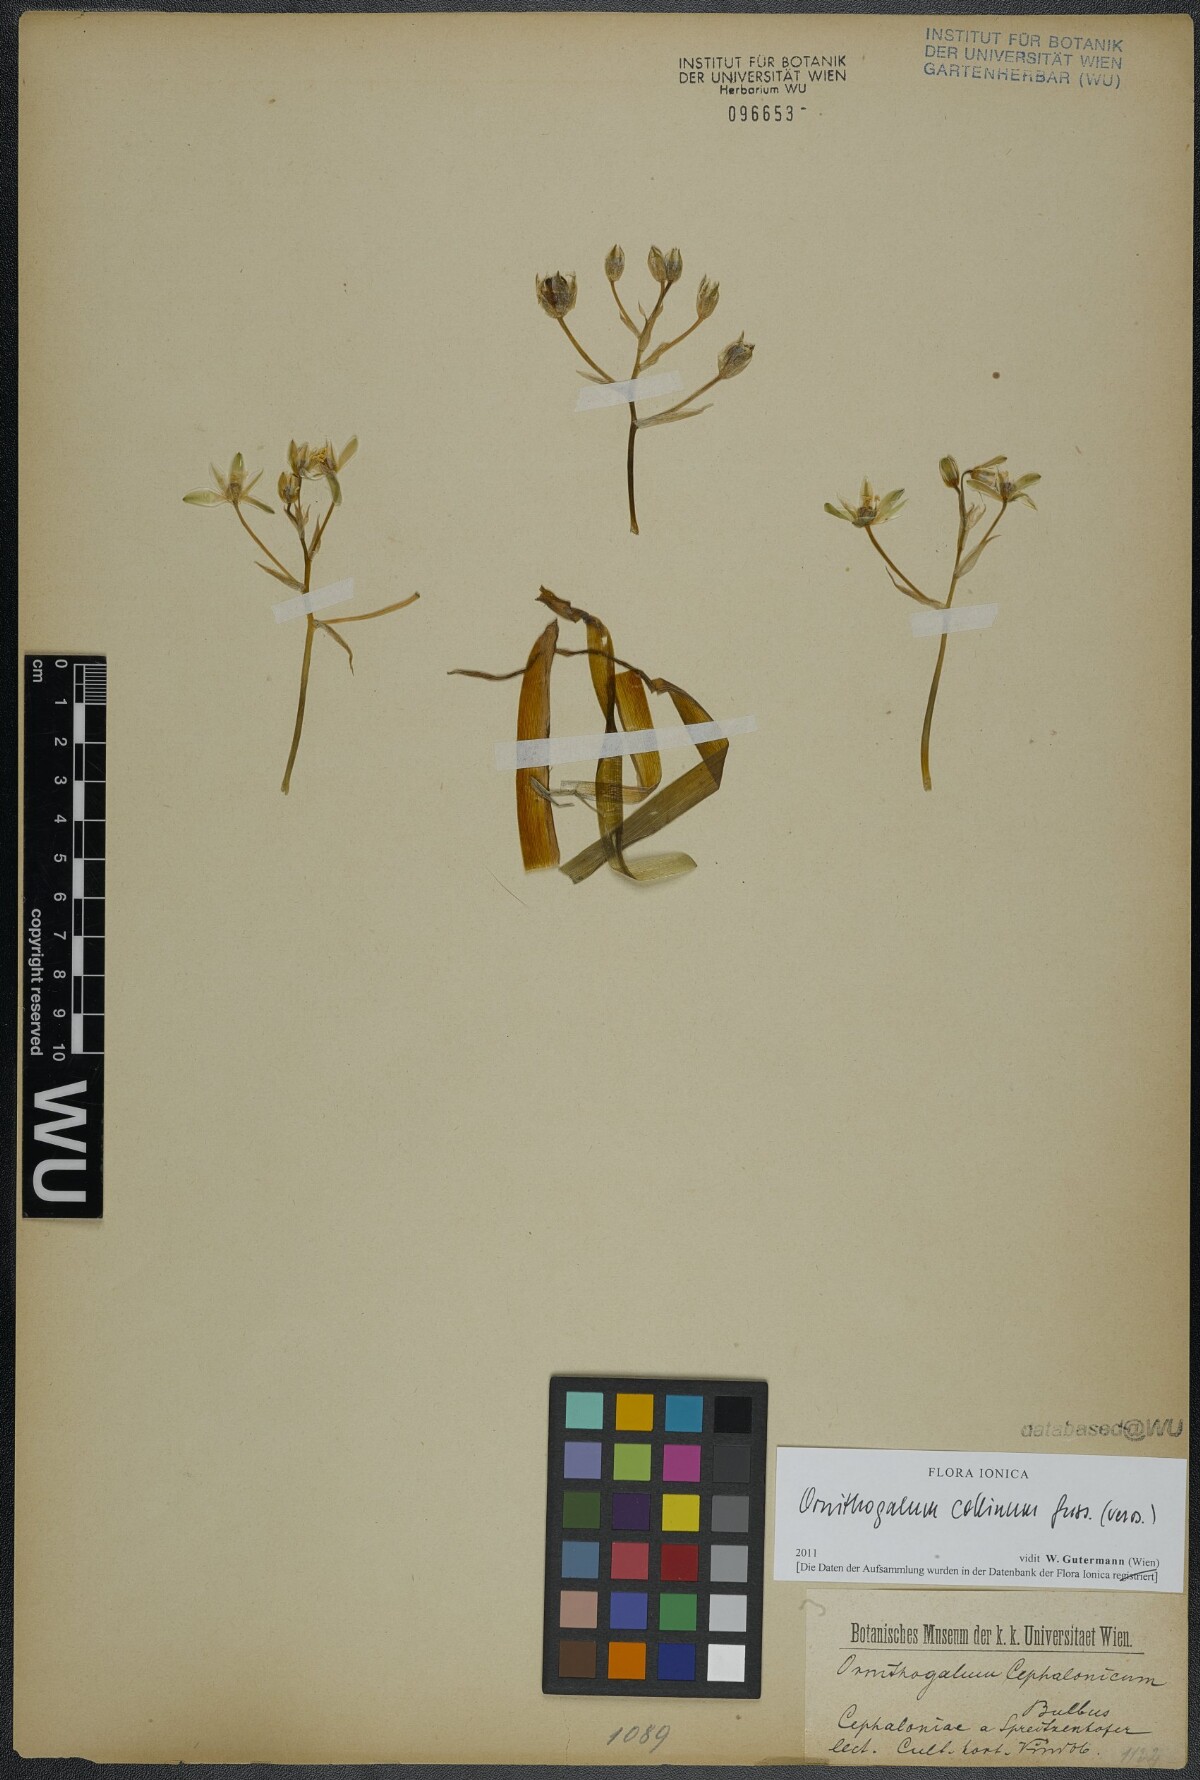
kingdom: Plantae
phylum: Tracheophyta
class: Liliopsida
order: Asparagales
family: Asparagaceae
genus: Ornithogalum
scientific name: Ornithogalum collinum
